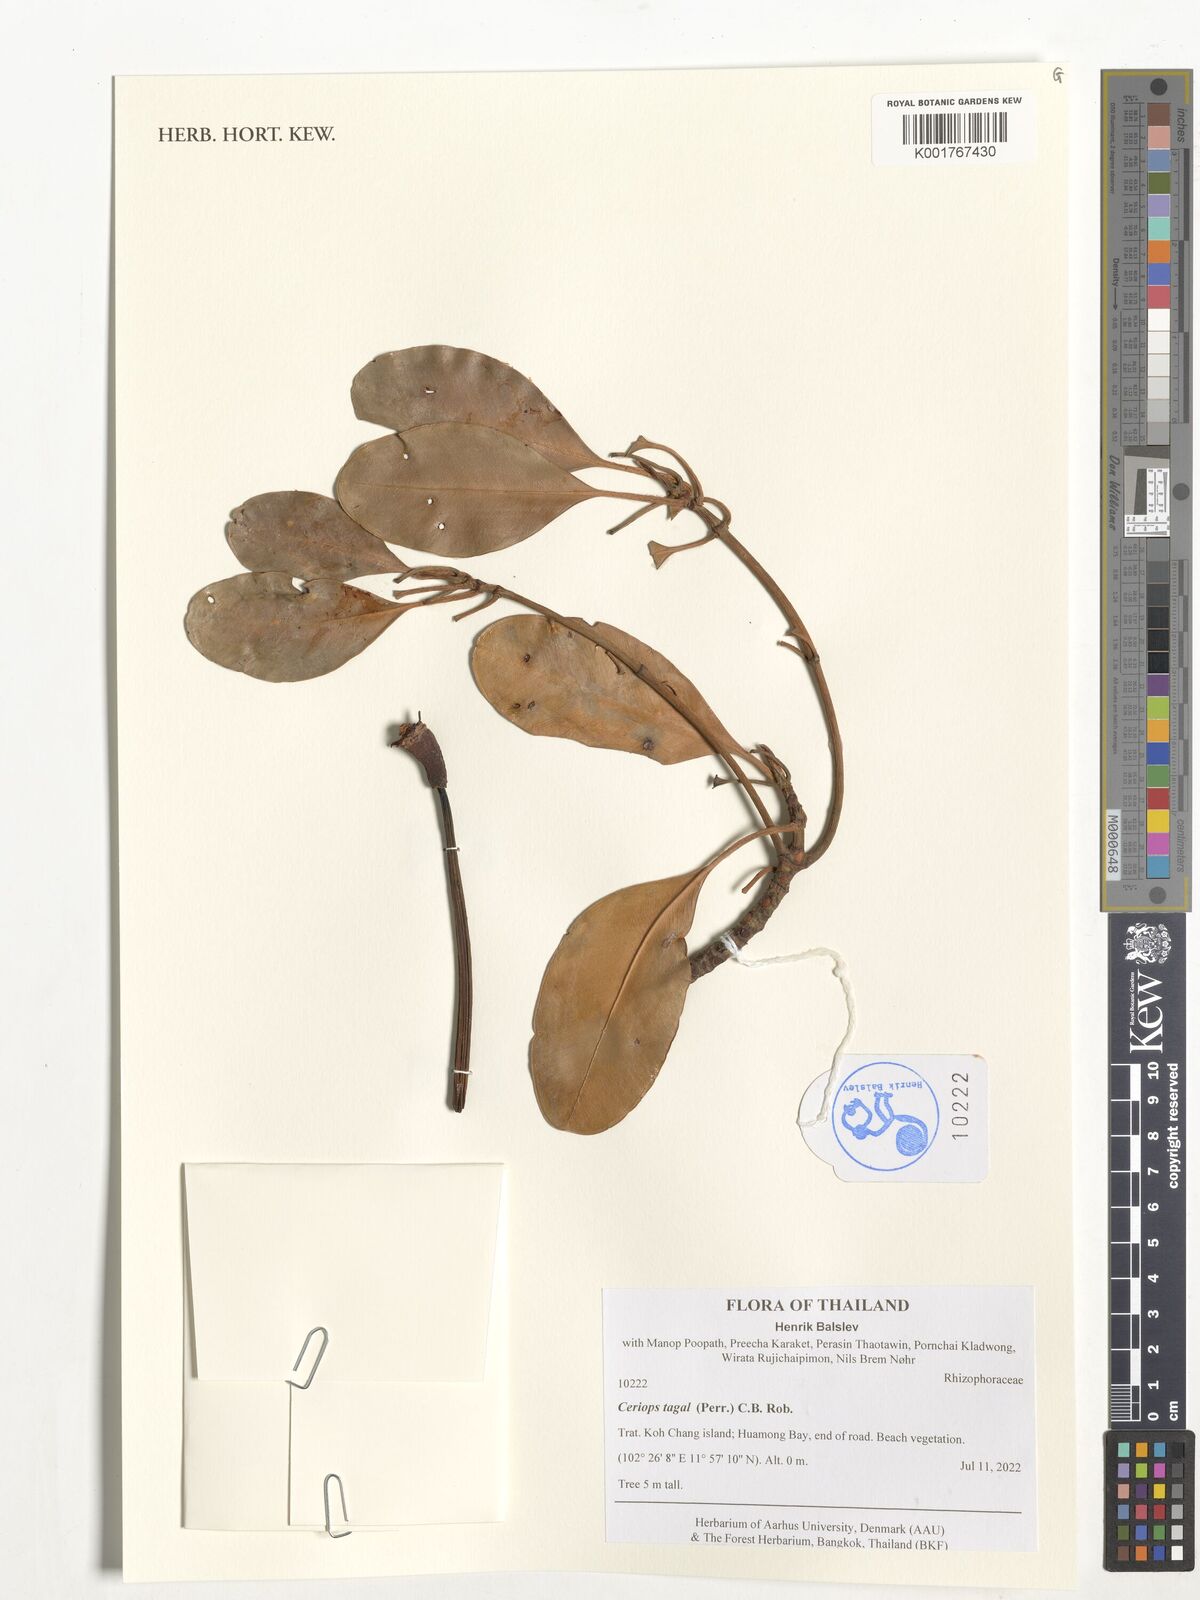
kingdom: Plantae
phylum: Tracheophyta
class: Magnoliopsida
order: Malpighiales
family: Rhizophoraceae
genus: Ceriops
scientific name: Ceriops tagal
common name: Spurred mangrove
